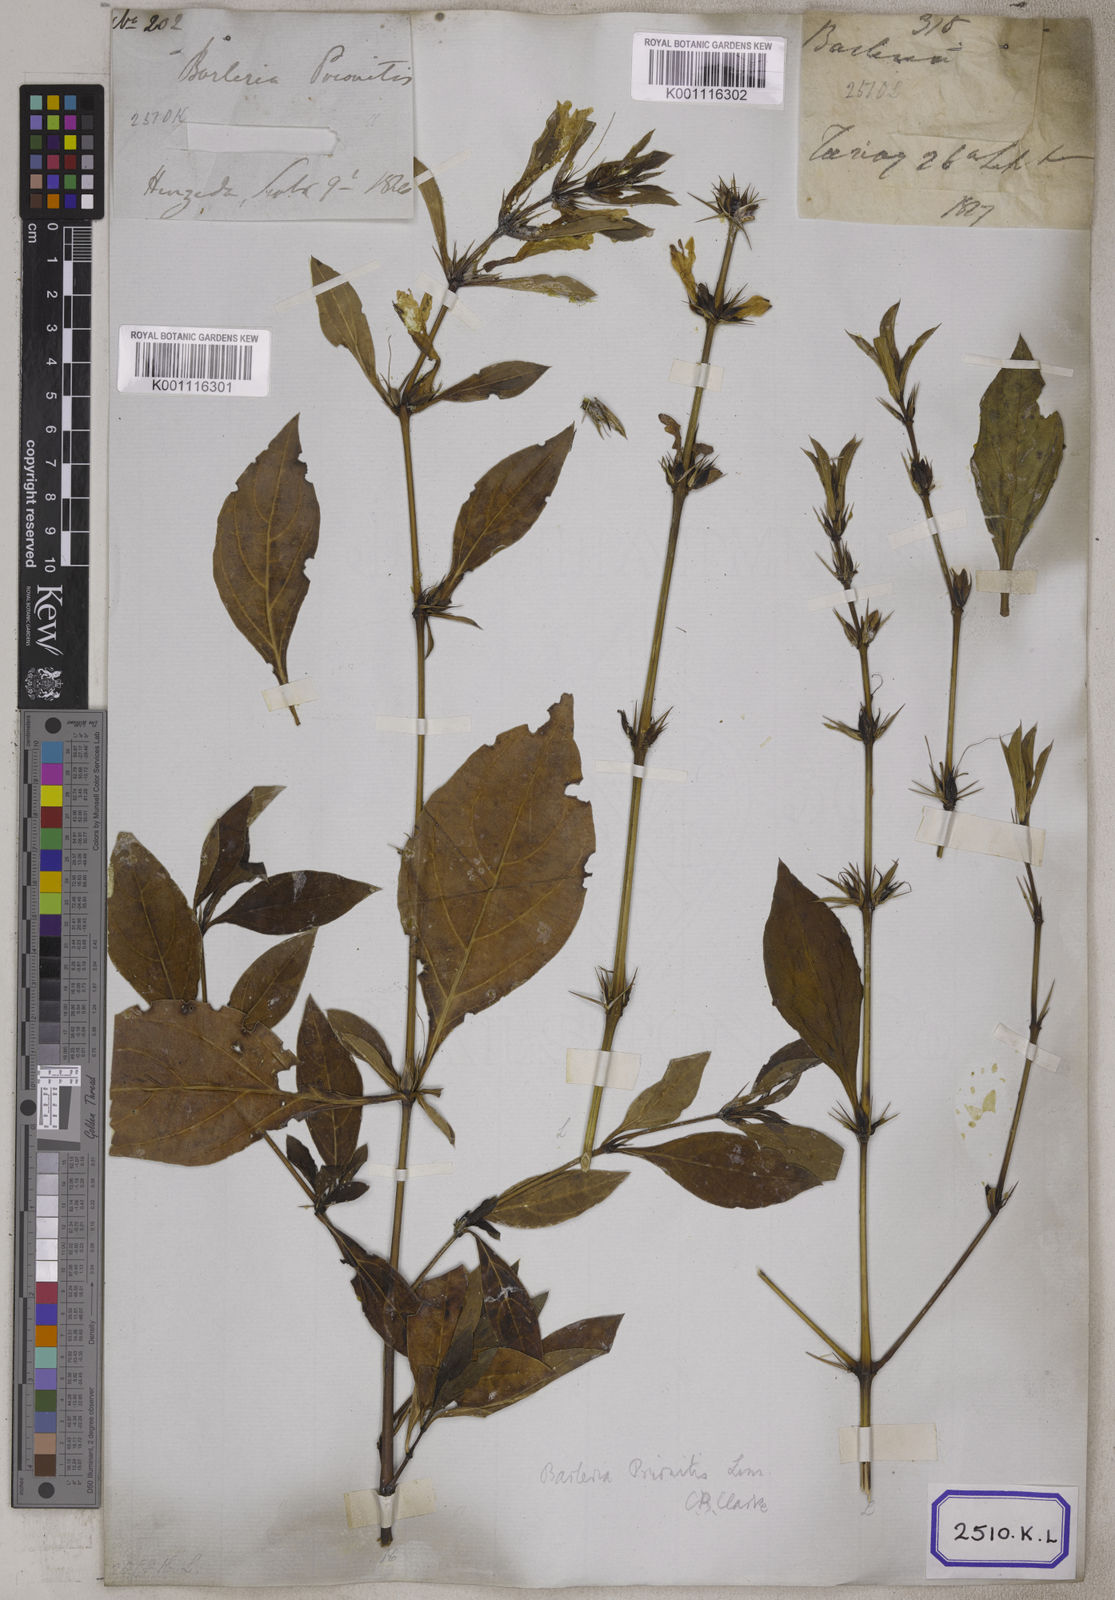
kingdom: Plantae
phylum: Tracheophyta
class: Magnoliopsida
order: Lamiales
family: Acanthaceae
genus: Barleria
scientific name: Barleria prionitis
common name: Barleria
